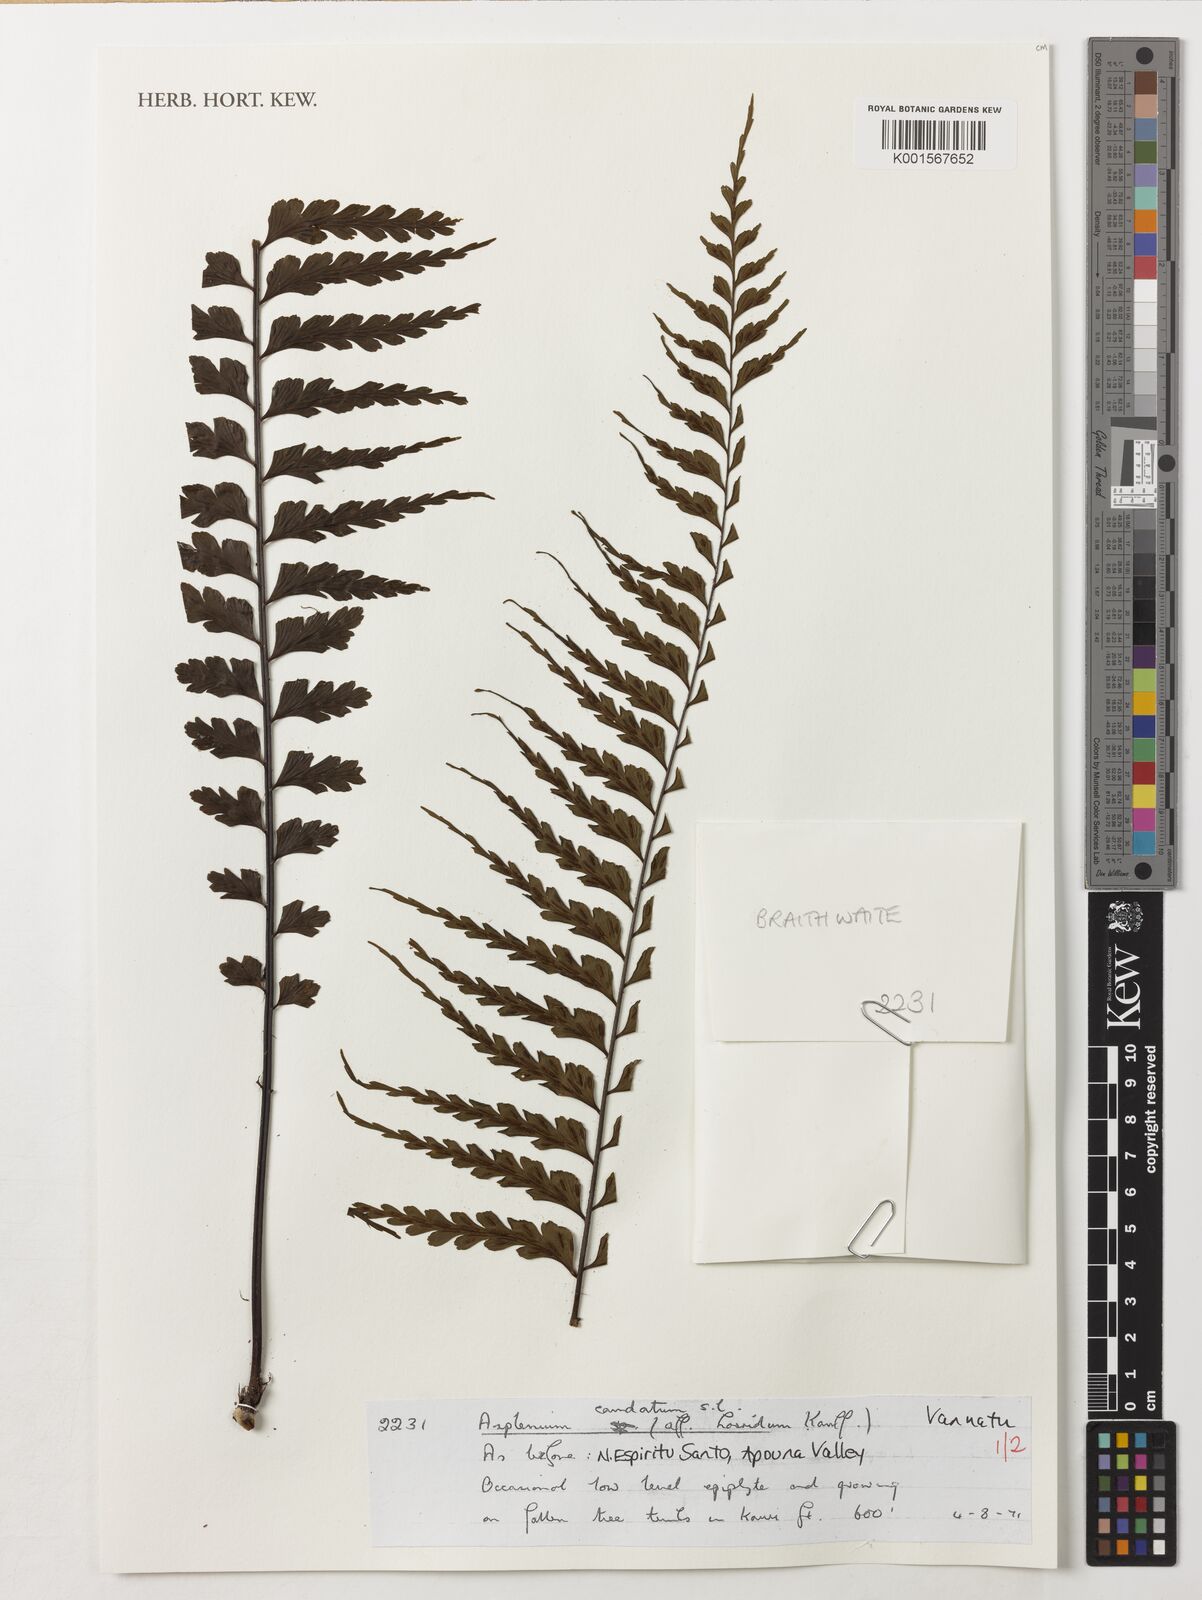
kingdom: Plantae
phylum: Tracheophyta
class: Polypodiopsida
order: Polypodiales
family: Aspleniaceae
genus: Asplenium
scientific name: Asplenium caudatum
